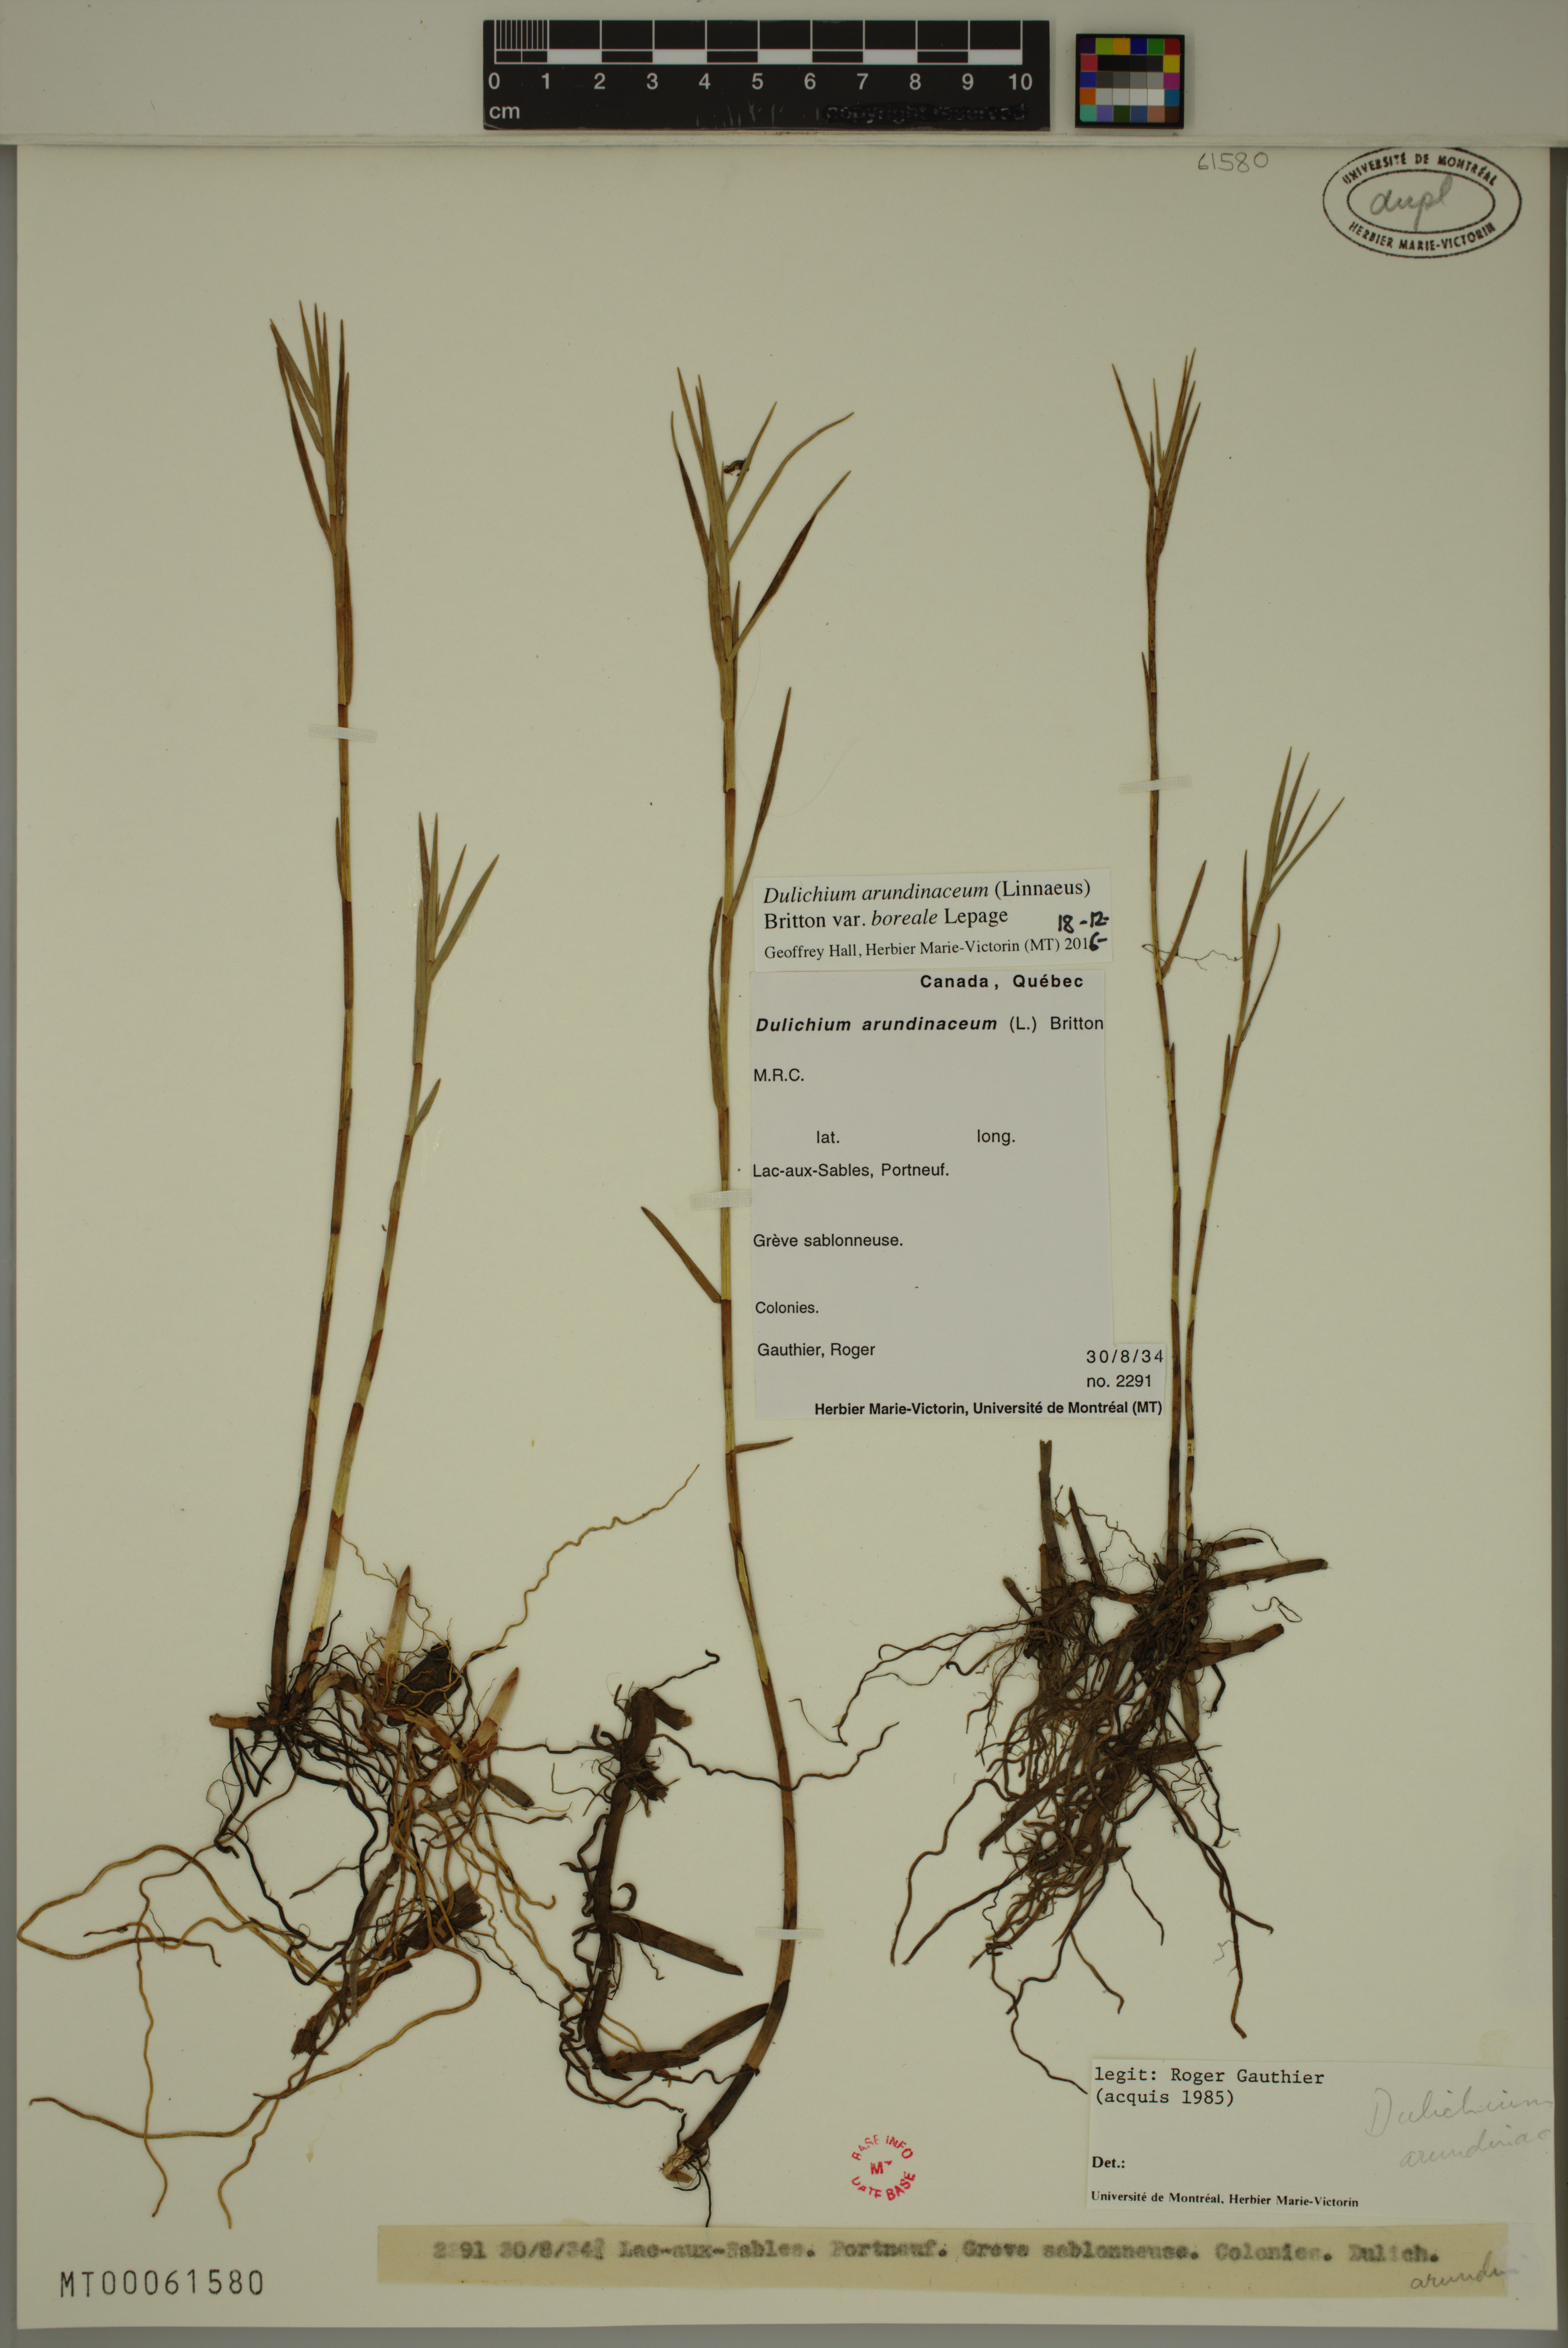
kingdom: Plantae
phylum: Tracheophyta
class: Liliopsida
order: Poales
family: Cyperaceae
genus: Dulichium
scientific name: Dulichium arundinaceum
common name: Three-way sedge
